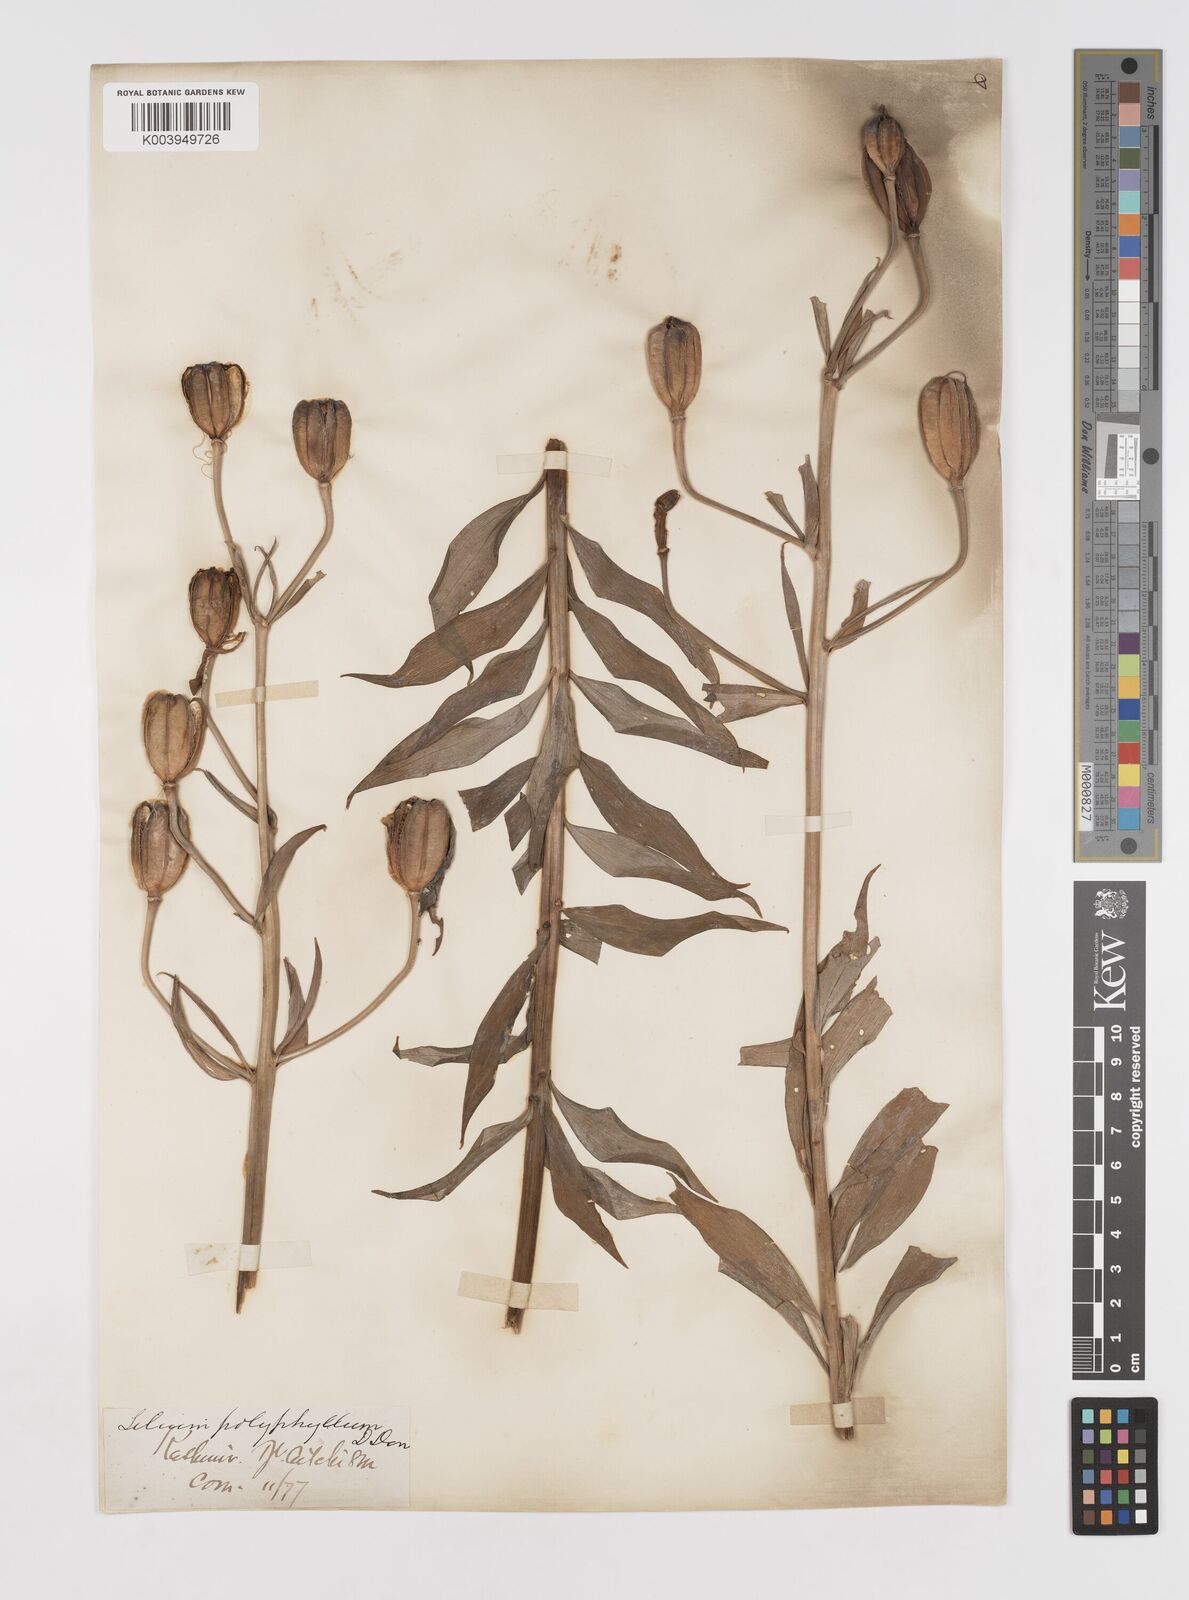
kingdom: Plantae
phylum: Tracheophyta
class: Liliopsida
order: Liliales
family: Liliaceae
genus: Lilium
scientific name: Lilium polyphyllum
